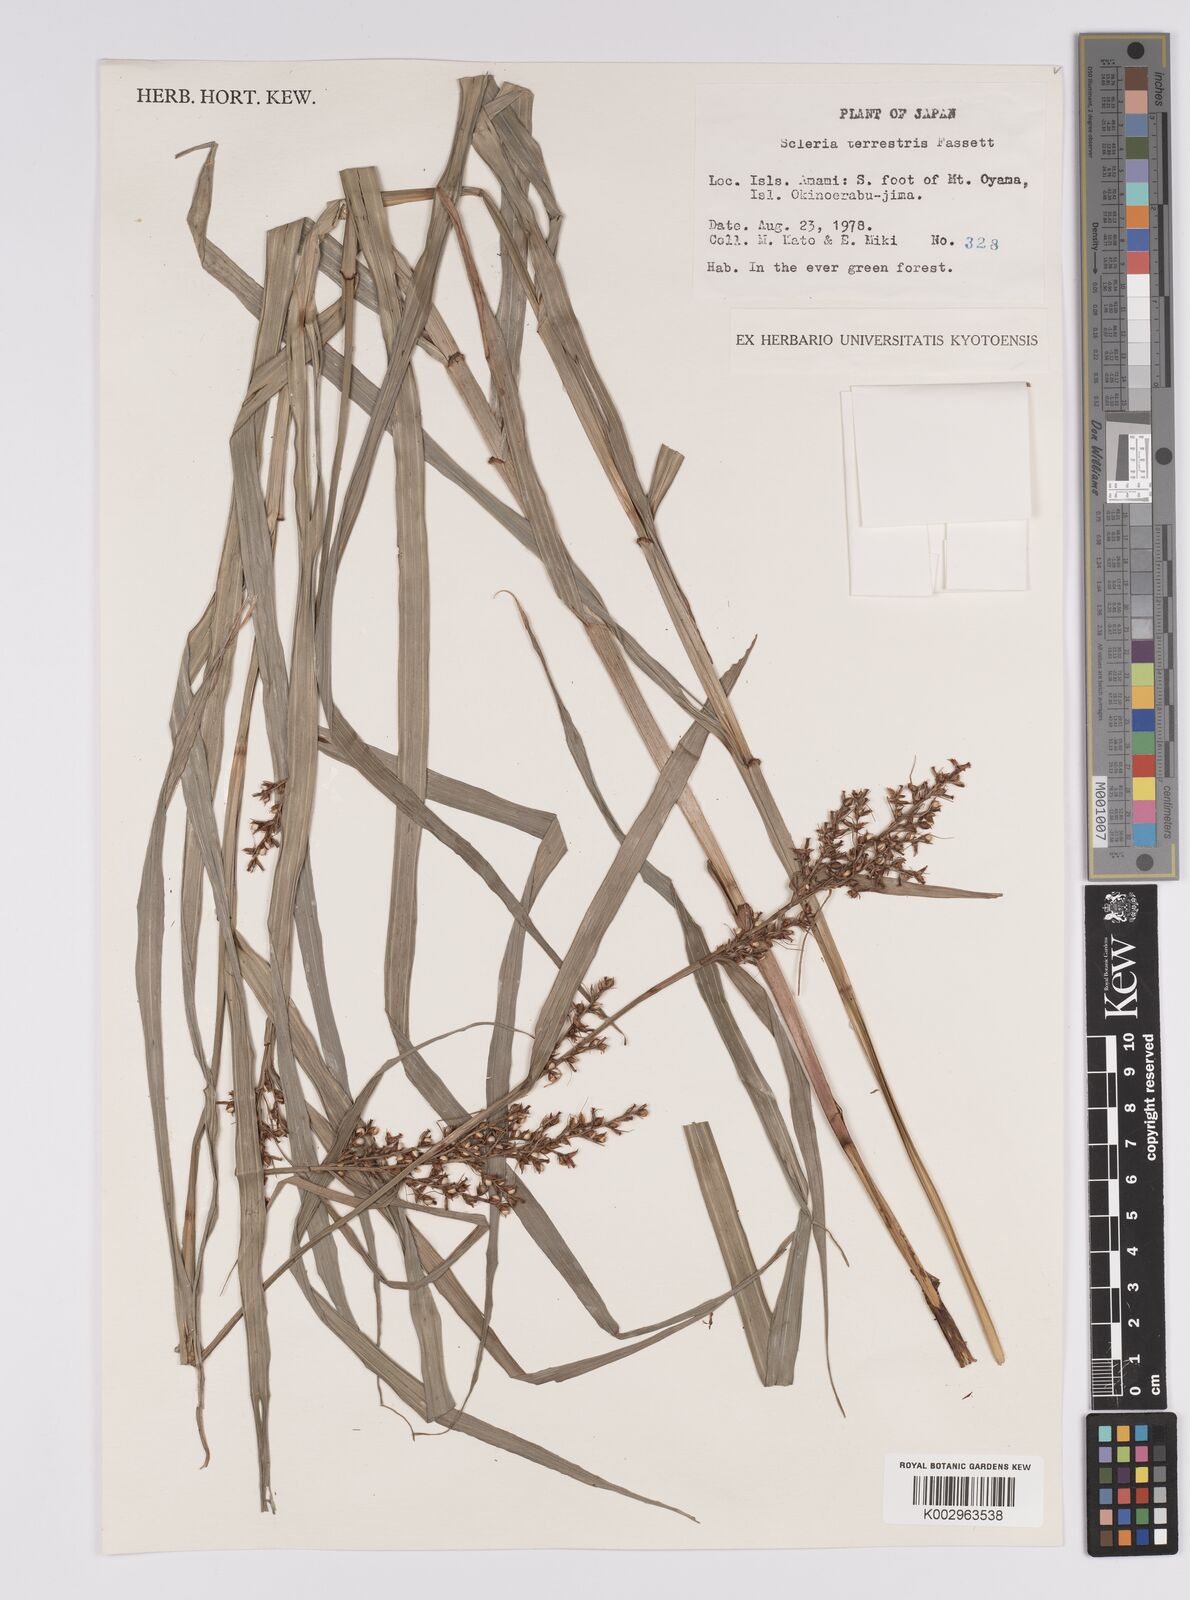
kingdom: Plantae
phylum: Tracheophyta
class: Liliopsida
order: Poales
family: Cyperaceae
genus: Scleria
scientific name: Scleria terrestris
